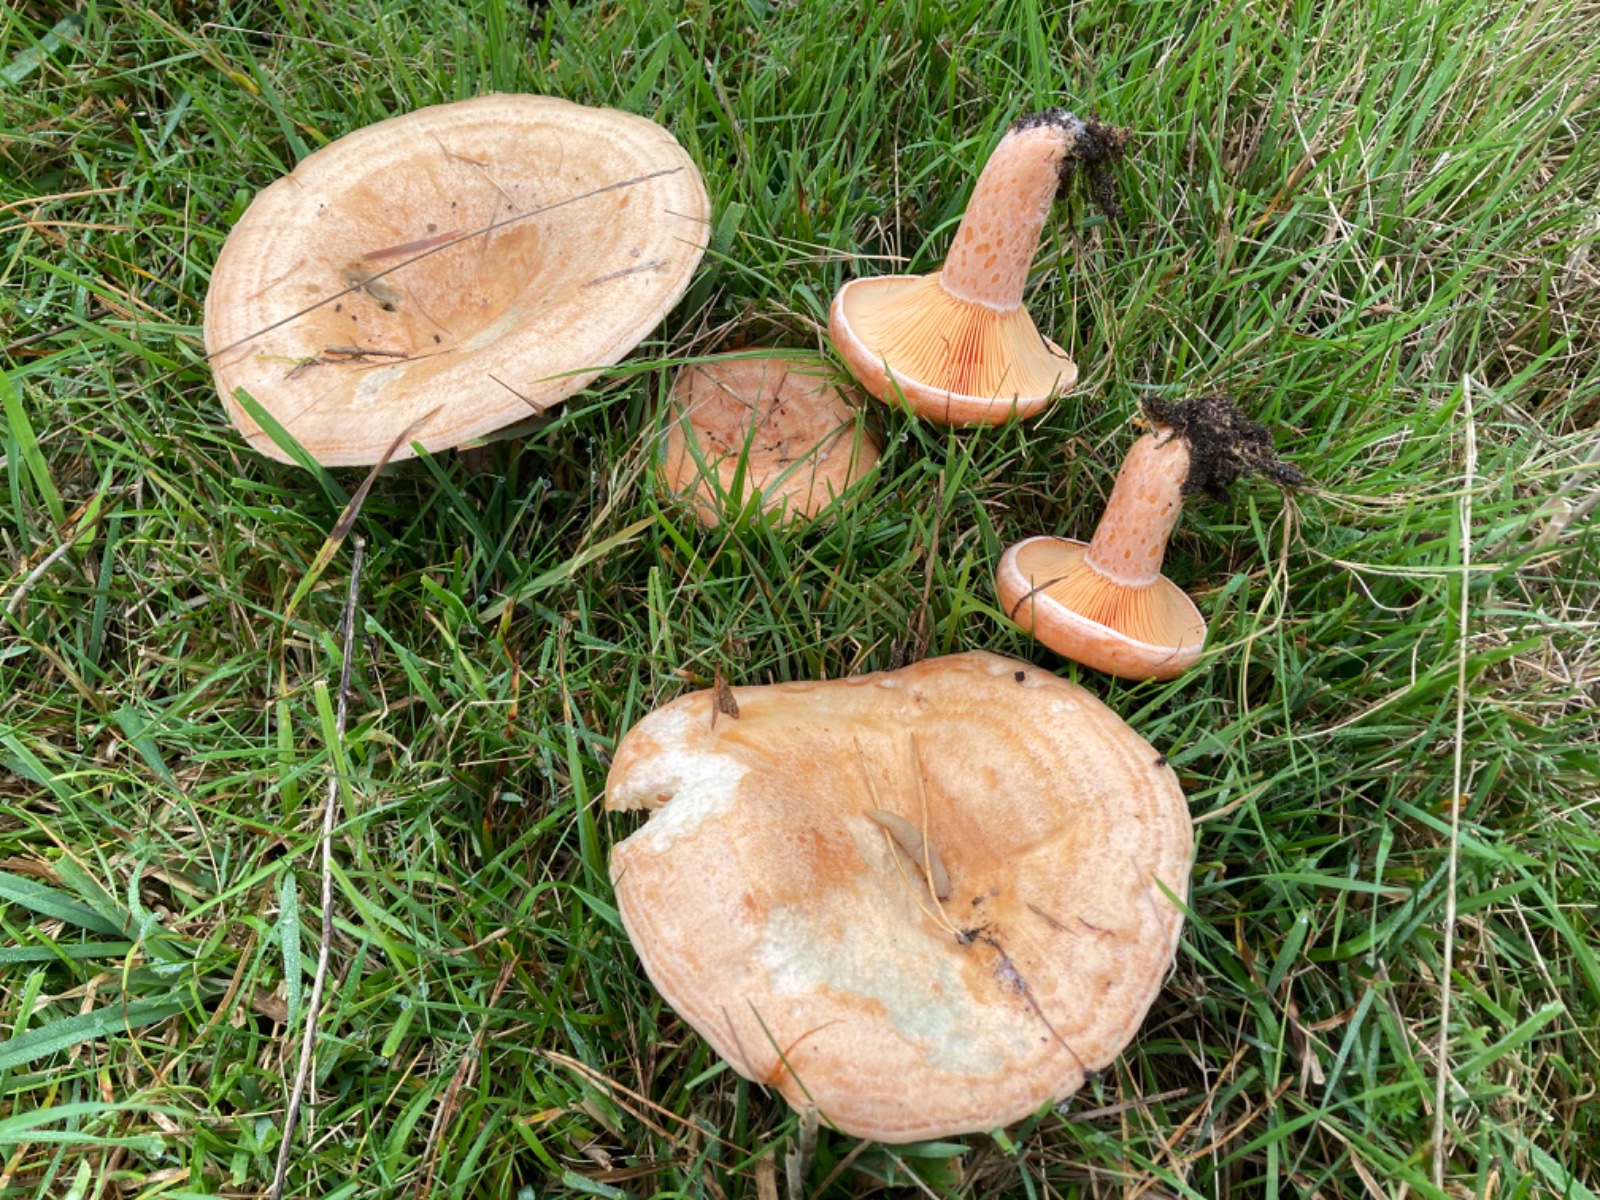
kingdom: Fungi
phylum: Basidiomycota
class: Agaricomycetes
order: Russulales
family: Russulaceae
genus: Lactarius
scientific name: Lactarius deliciosus
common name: velsmagende mælkehat
